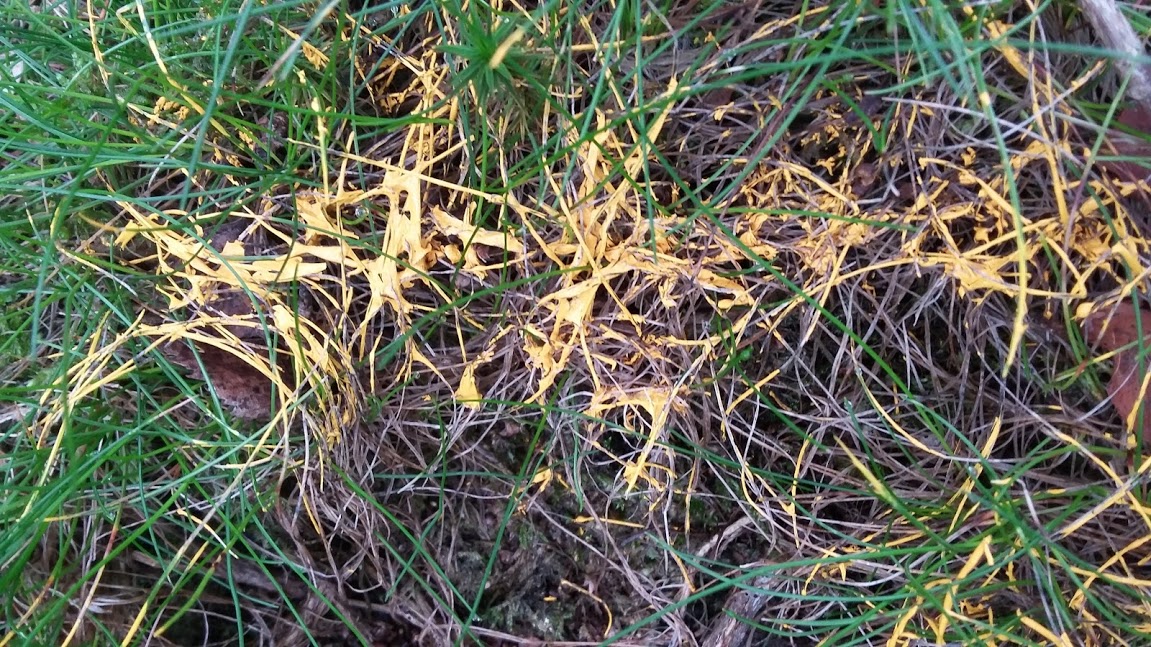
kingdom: Protozoa
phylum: Mycetozoa
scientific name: Mycetozoa
